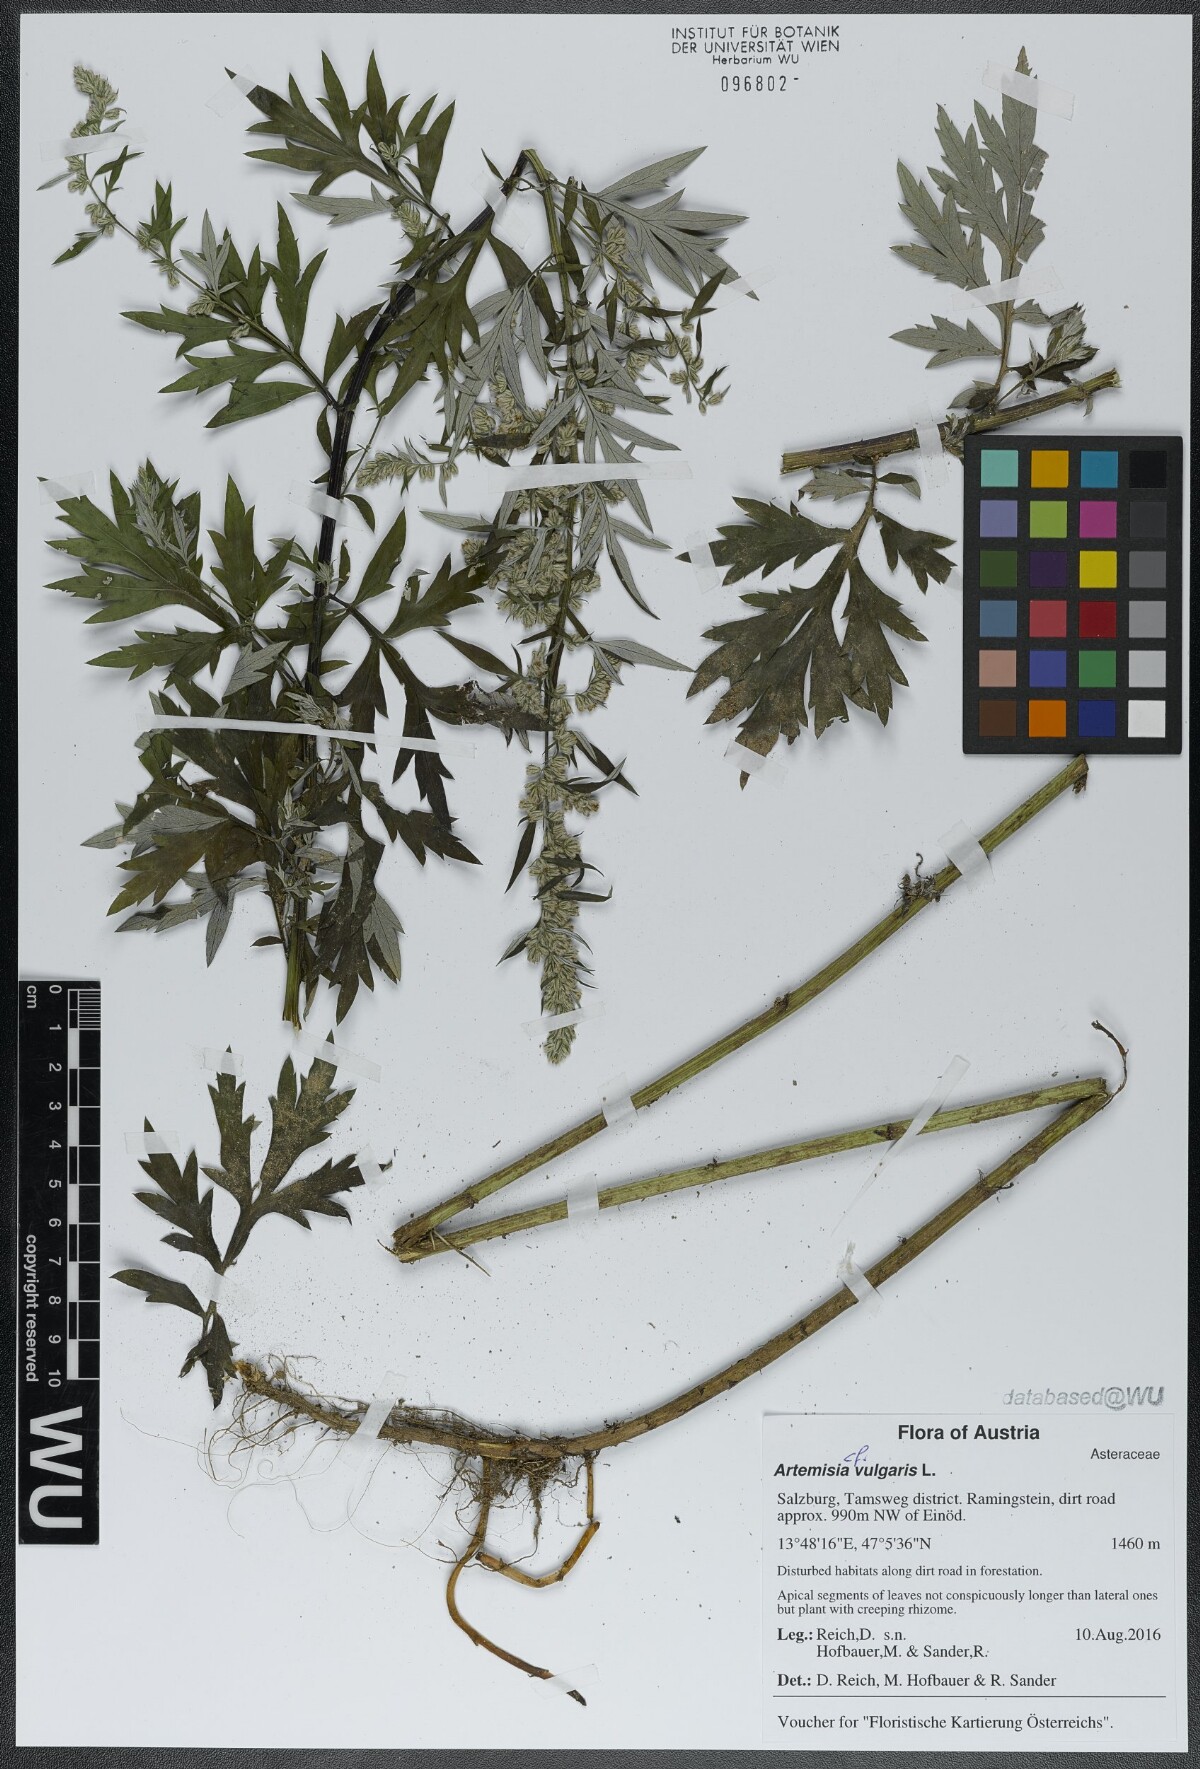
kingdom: Plantae
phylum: Tracheophyta
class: Magnoliopsida
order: Asterales
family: Asteraceae
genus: Artemisia
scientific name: Artemisia vulgaris
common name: Mugwort
